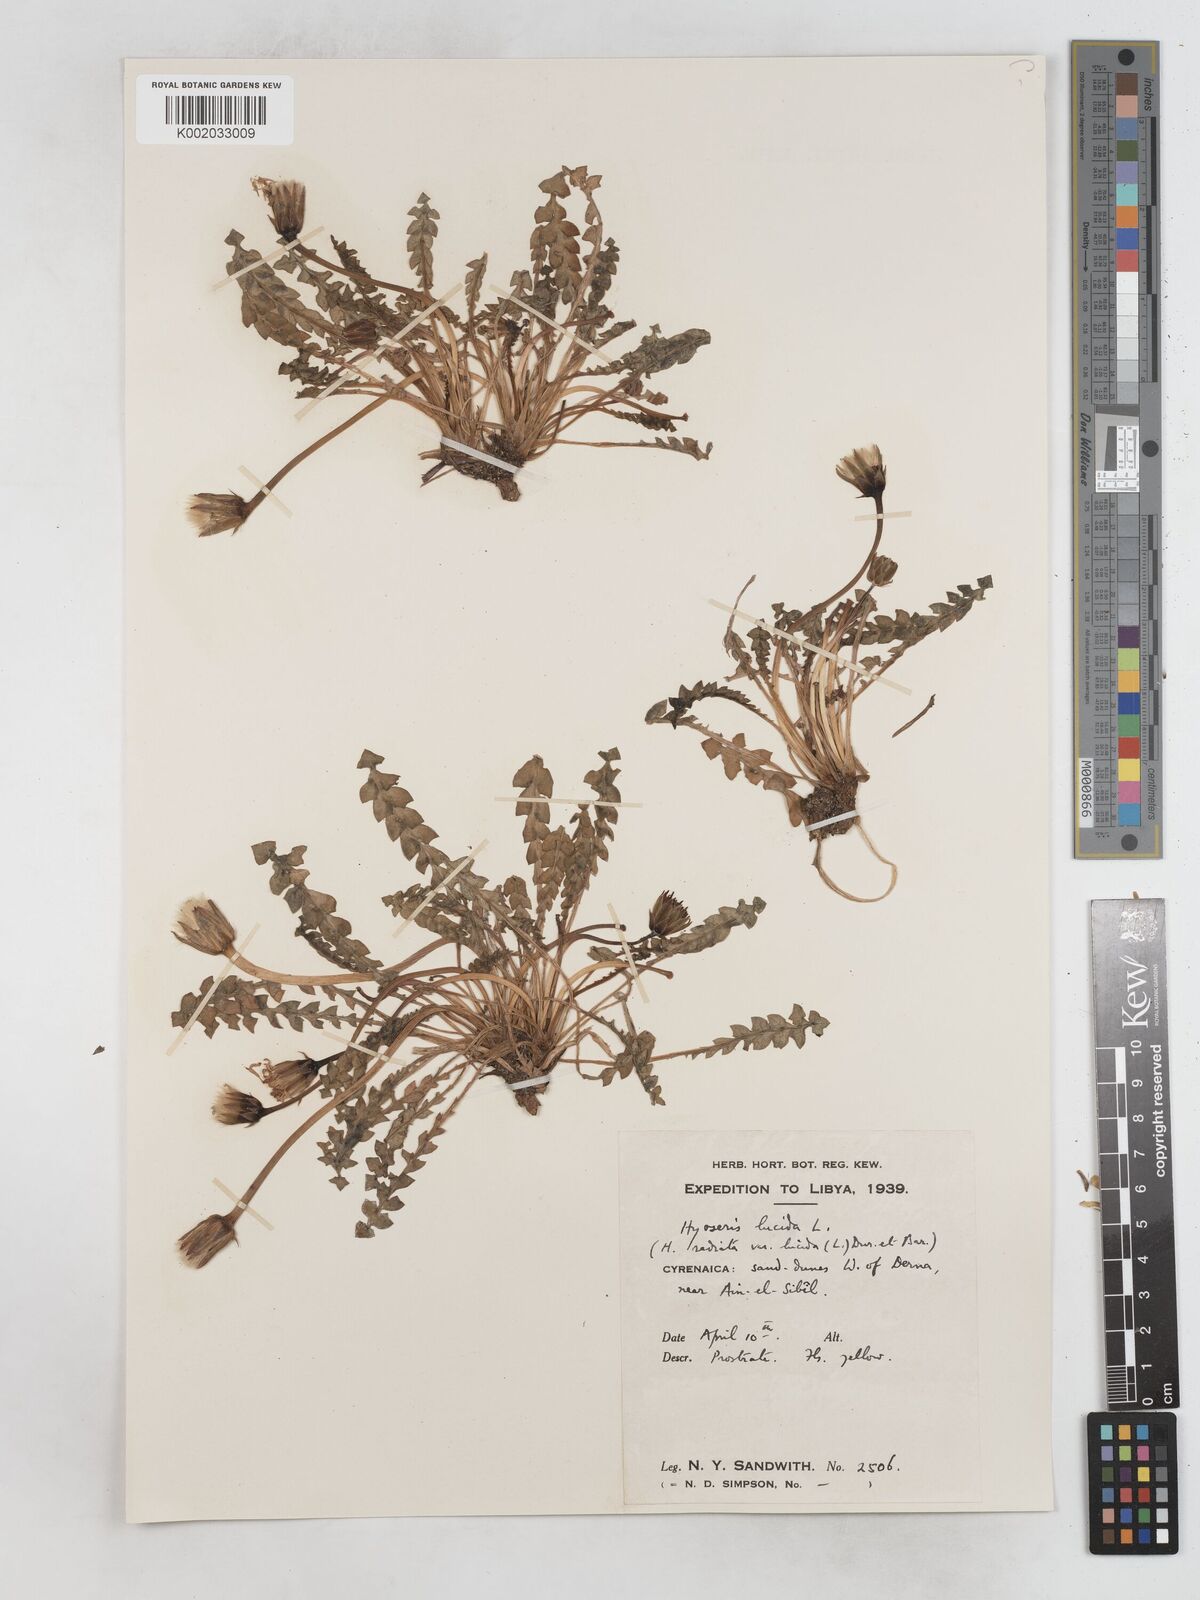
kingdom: Plantae
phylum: Tracheophyta
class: Magnoliopsida
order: Asterales
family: Asteraceae
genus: Hyoseris
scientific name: Hyoseris radiata
